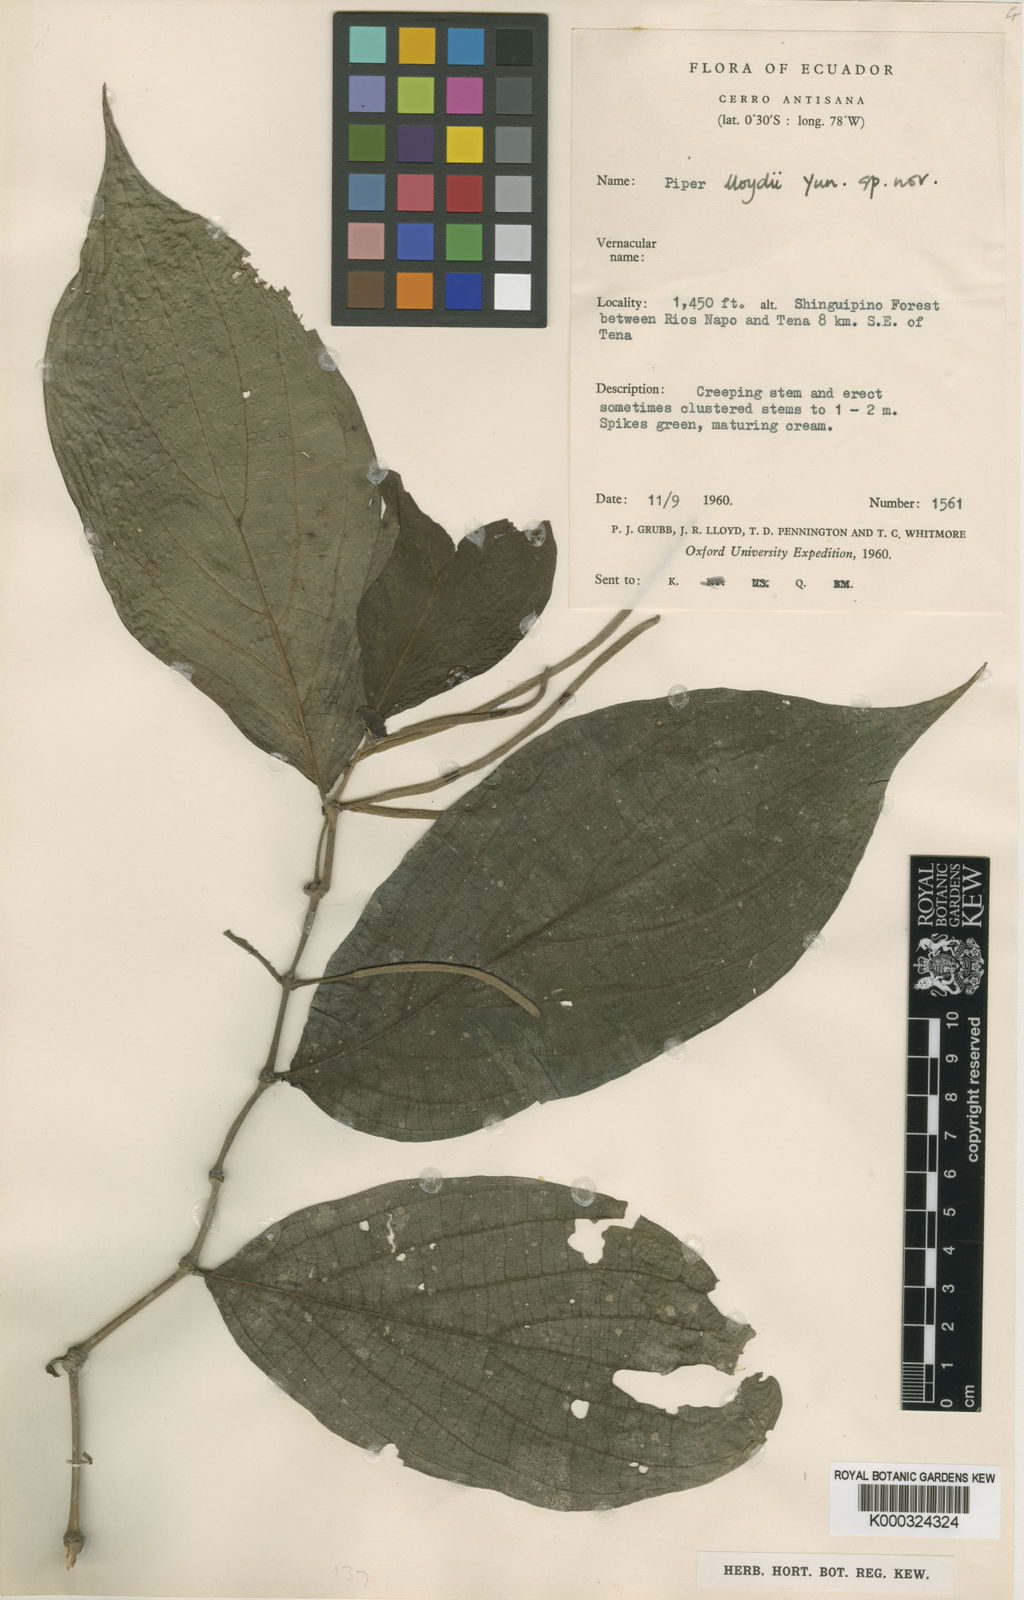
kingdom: Plantae
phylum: Tracheophyta
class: Magnoliopsida
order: Piperales
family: Piperaceae
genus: Piper
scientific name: Piper
